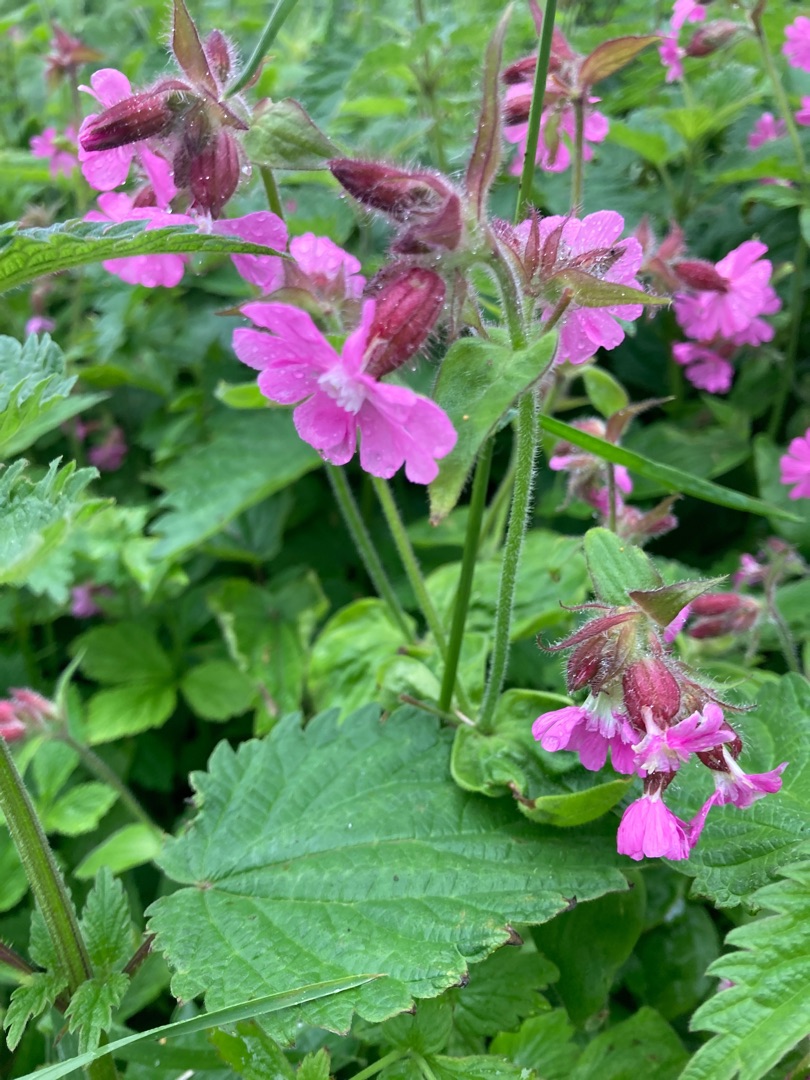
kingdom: Plantae
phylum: Tracheophyta
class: Magnoliopsida
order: Caryophyllales
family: Caryophyllaceae
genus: Silene
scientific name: Silene dioica
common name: Dagpragtstjerne
